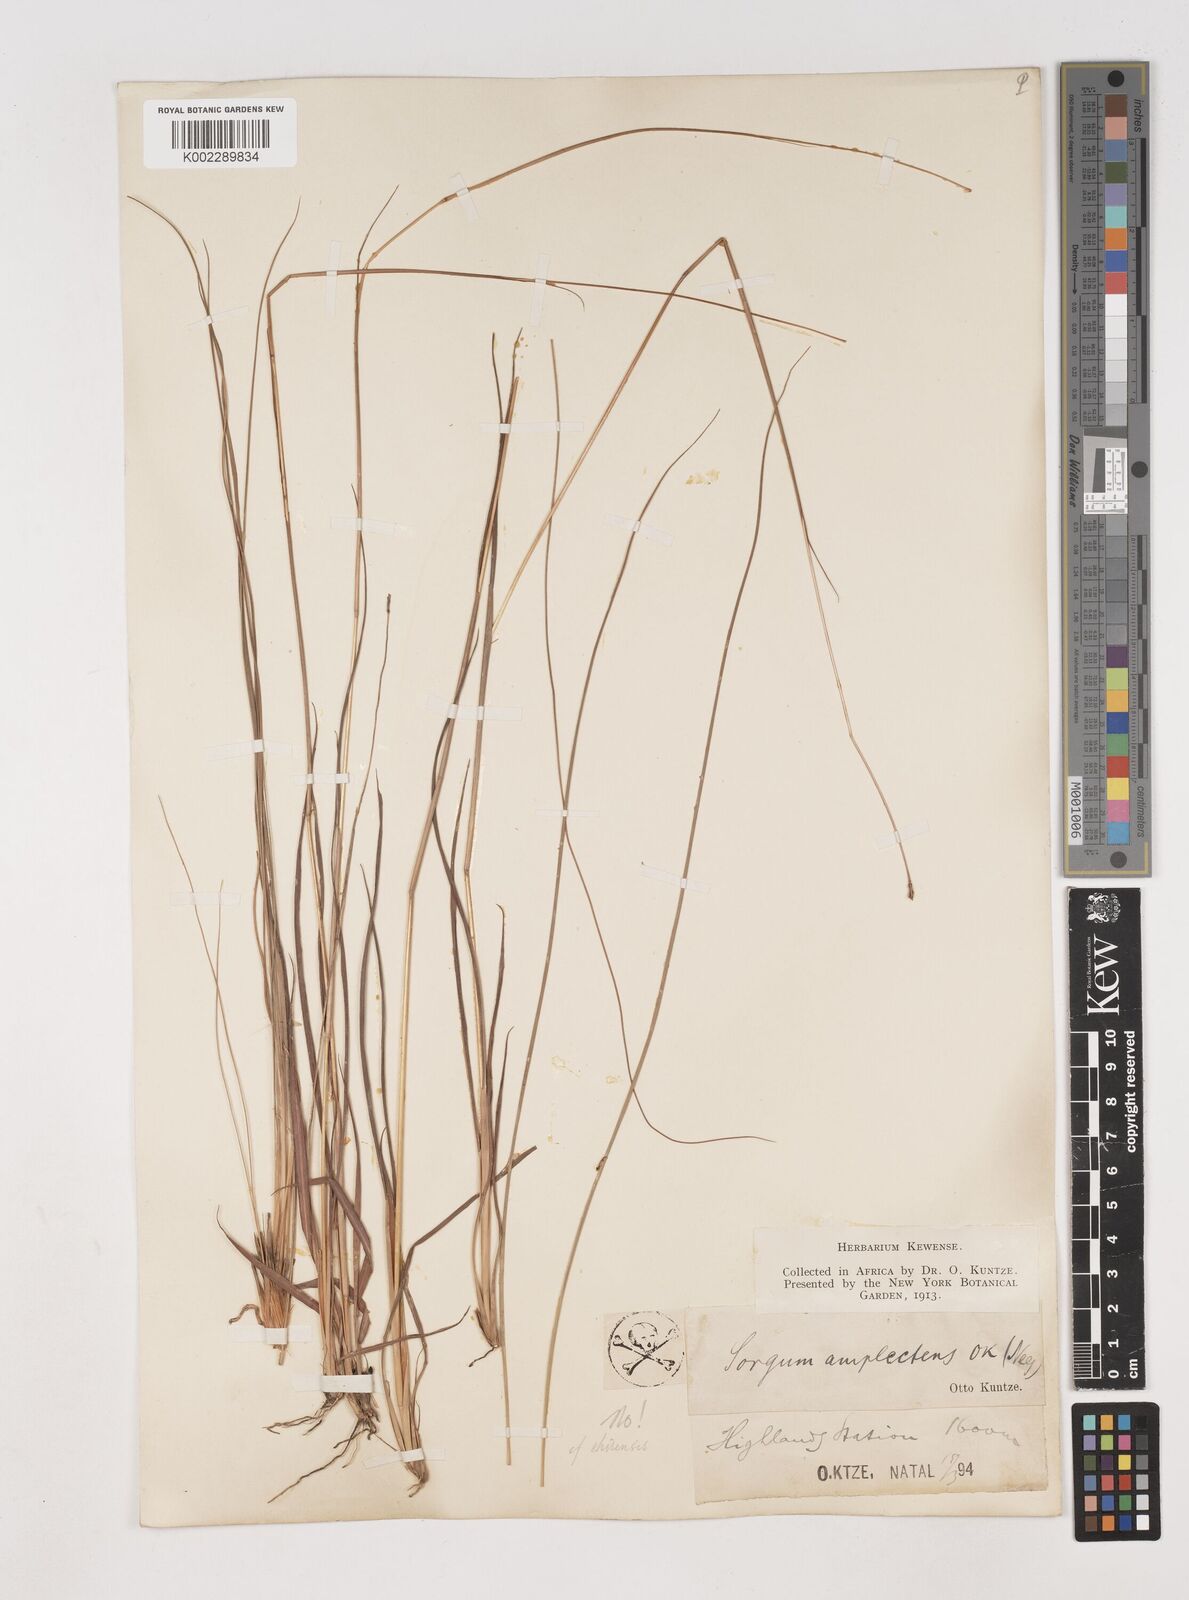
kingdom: Plantae
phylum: Tracheophyta
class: Liliopsida
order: Poales
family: Poaceae
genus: Diheteropogon
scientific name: Diheteropogon amplectens
